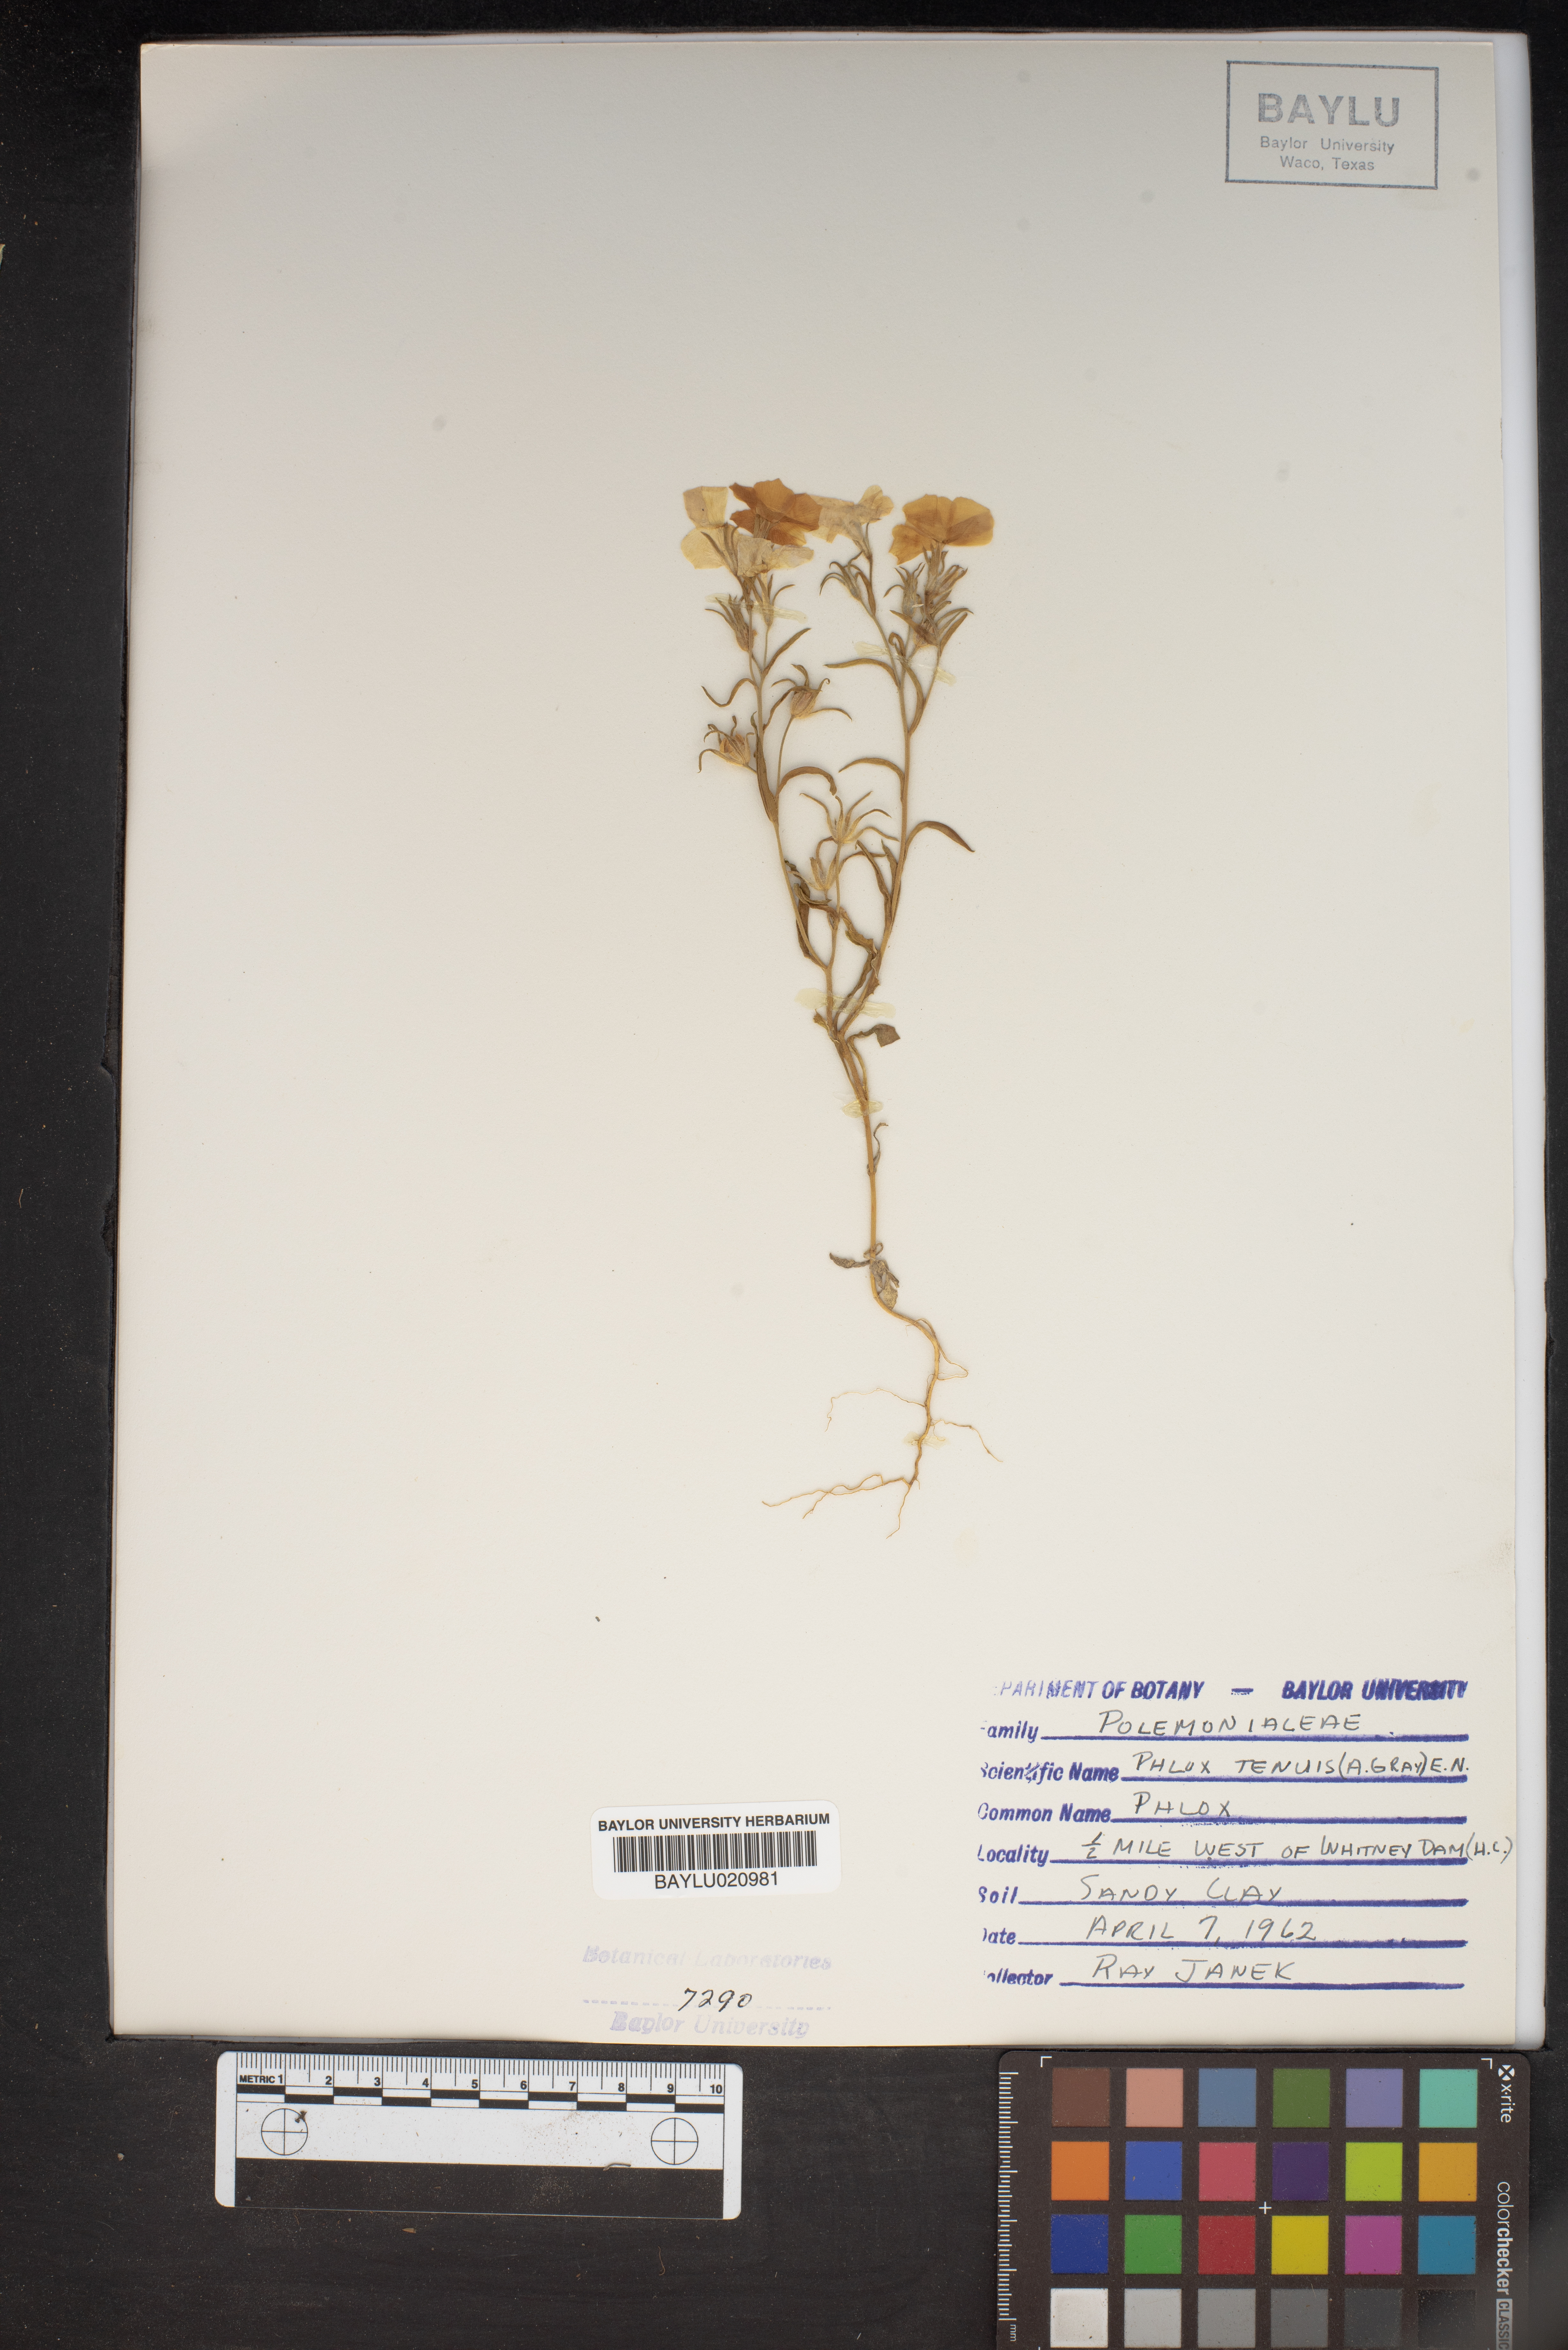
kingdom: Plantae
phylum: Tracheophyta
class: Magnoliopsida
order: Ericales
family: Polemoniaceae
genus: Phlox
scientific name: Phlox longifolia
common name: Longleaf phlox
